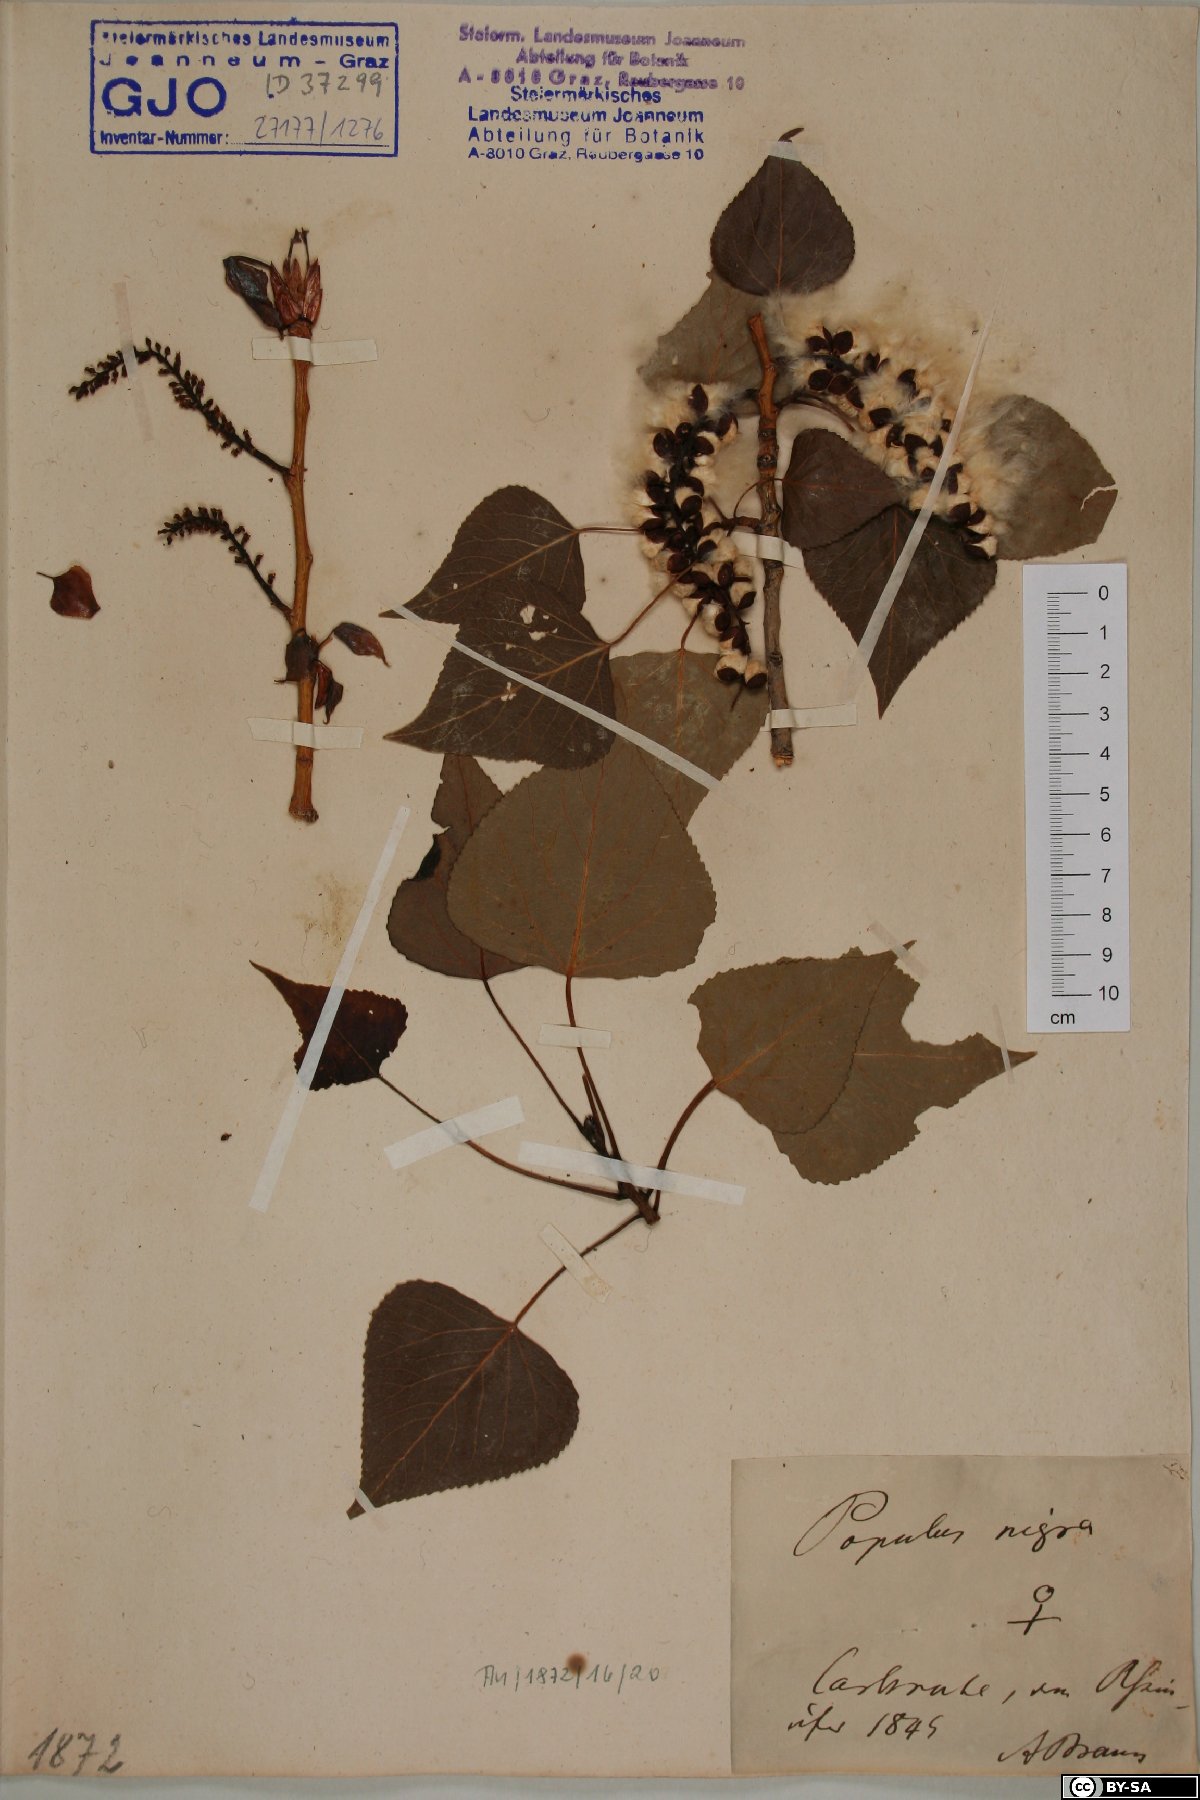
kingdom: Plantae
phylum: Tracheophyta
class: Magnoliopsida
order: Malpighiales
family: Salicaceae
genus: Populus
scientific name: Populus nigra
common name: Black poplar
